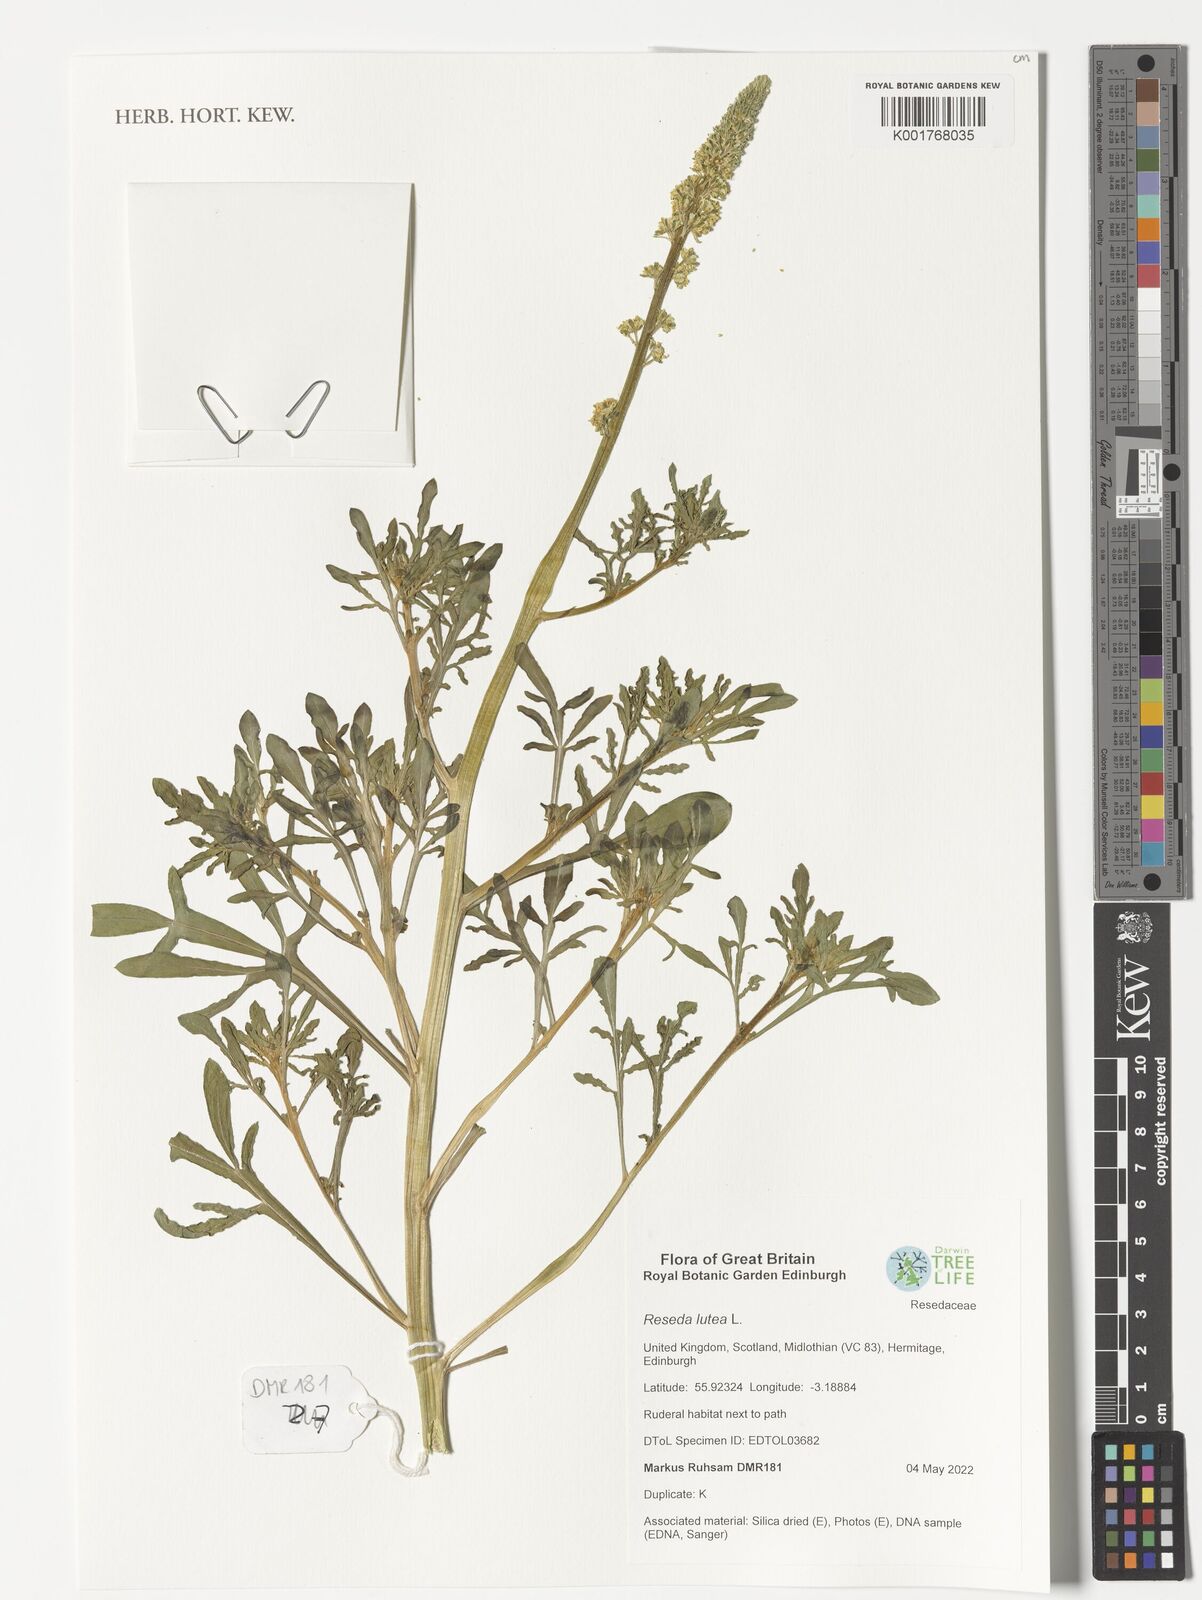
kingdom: Plantae
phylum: Tracheophyta
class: Magnoliopsida
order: Brassicales
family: Resedaceae
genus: Reseda
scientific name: Reseda lutea
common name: Wild mignonette
